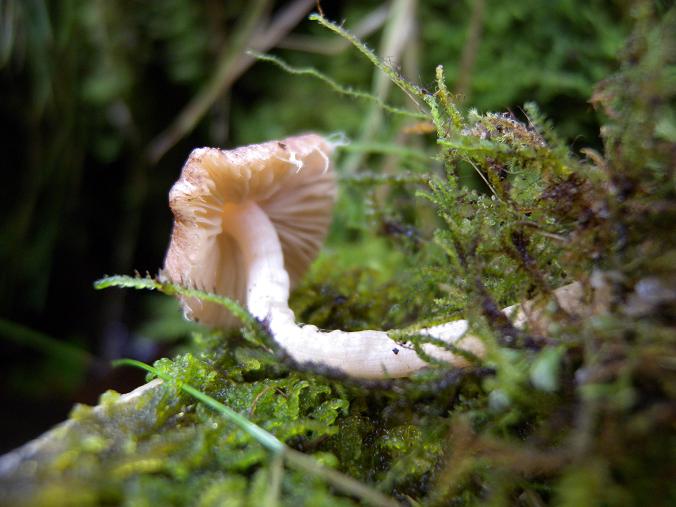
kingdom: Fungi
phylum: Basidiomycota
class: Agaricomycetes
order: Agaricales
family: Inocybaceae
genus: Inocybe
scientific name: Inocybe
